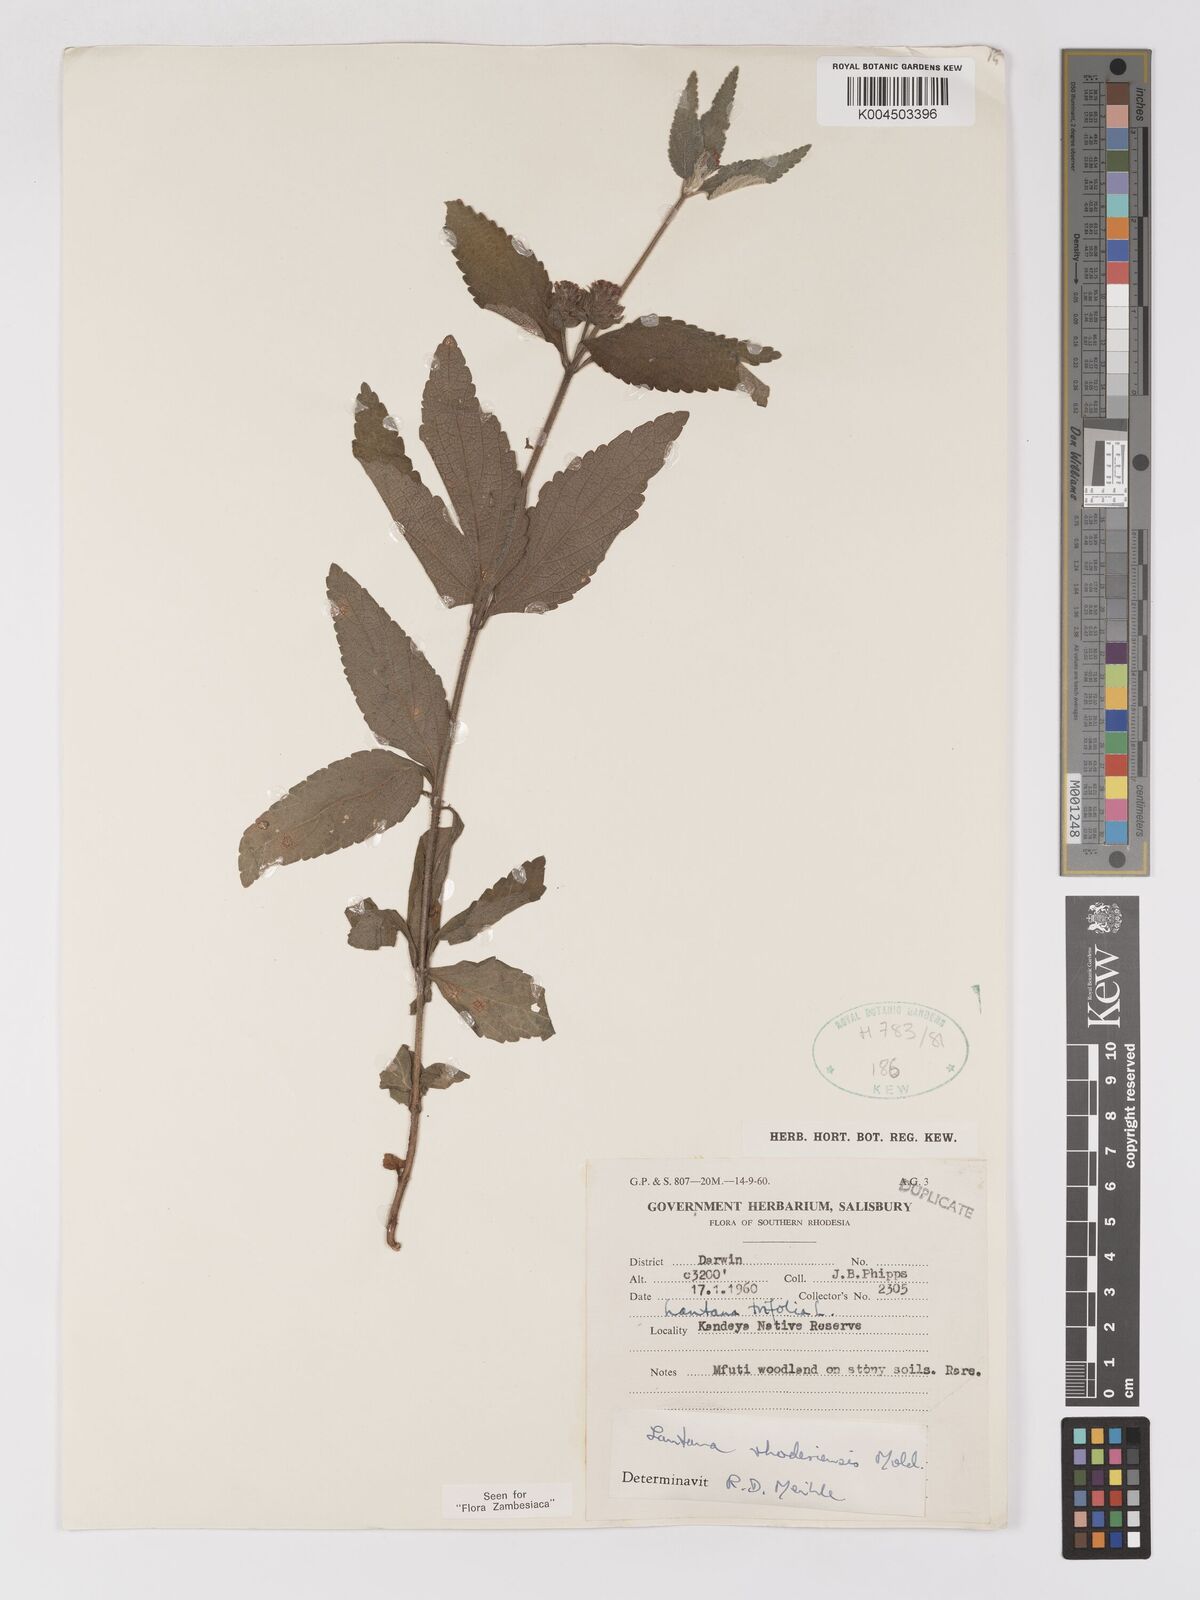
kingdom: Plantae
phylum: Tracheophyta
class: Magnoliopsida
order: Lamiales
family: Verbenaceae
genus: Lantana
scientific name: Lantana ukambensis
